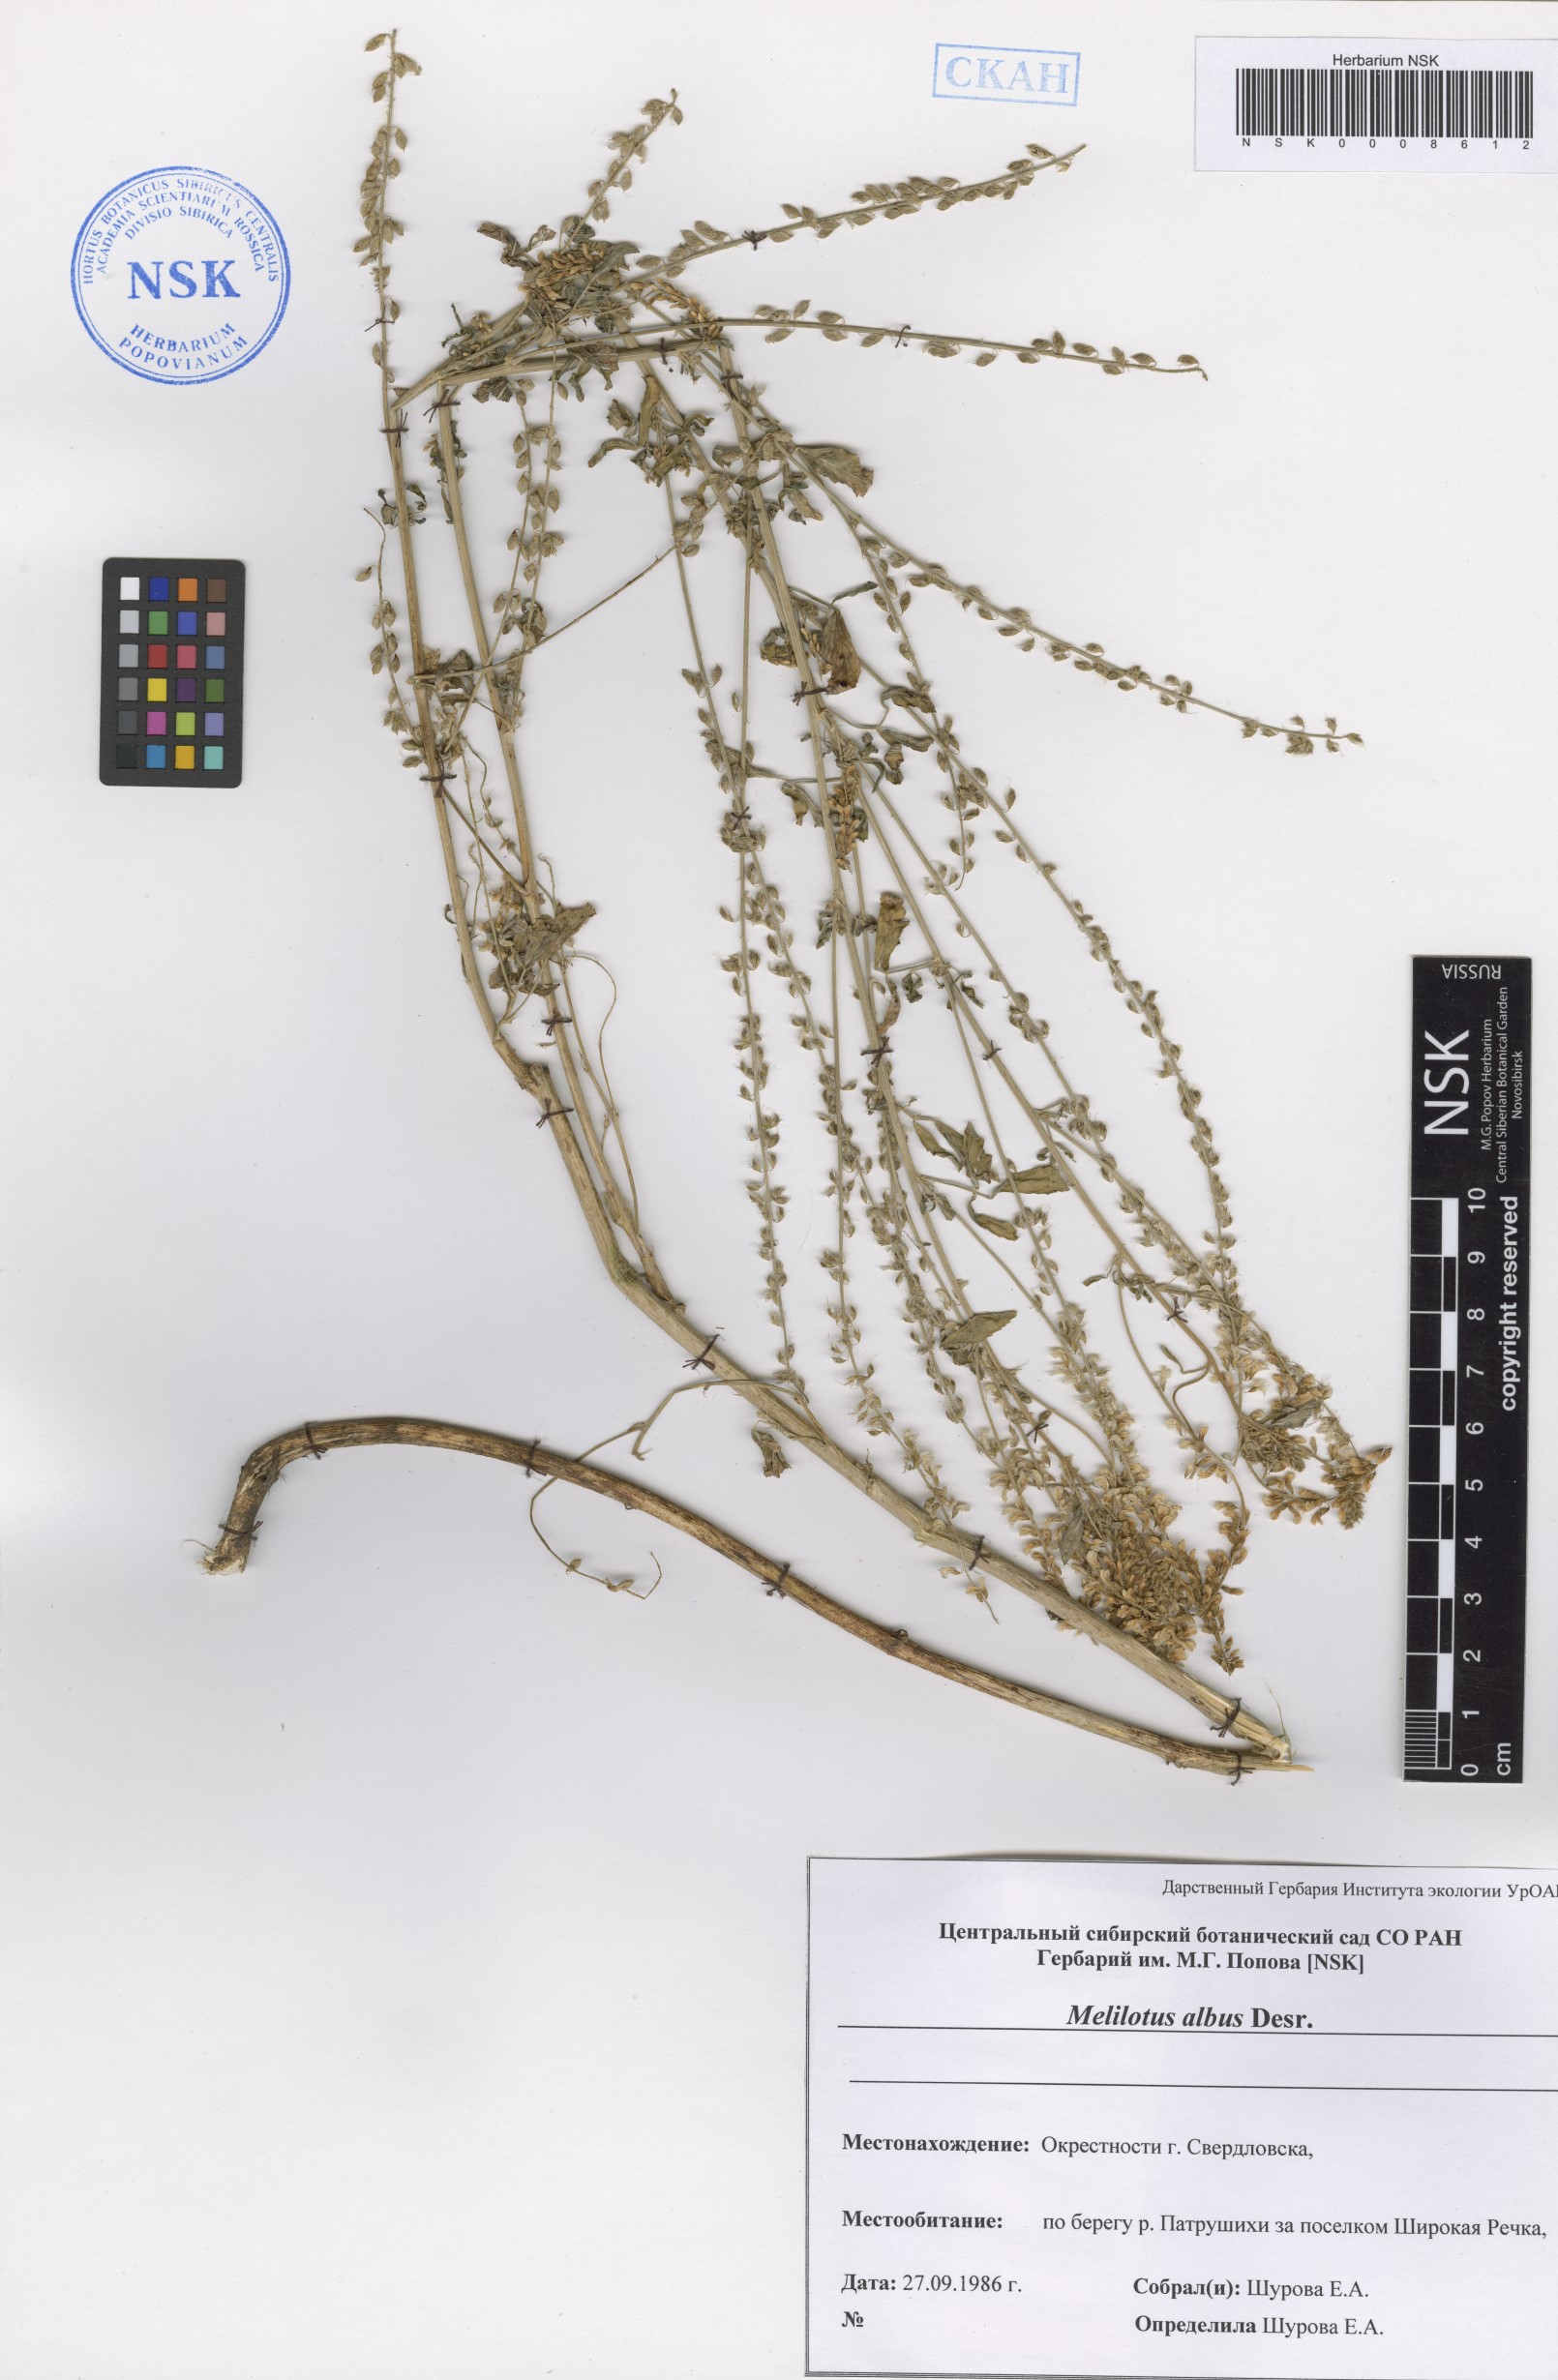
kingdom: Plantae
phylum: Tracheophyta
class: Magnoliopsida
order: Fabales
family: Fabaceae
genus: Melilotus
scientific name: Melilotus albus
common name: White melilot
